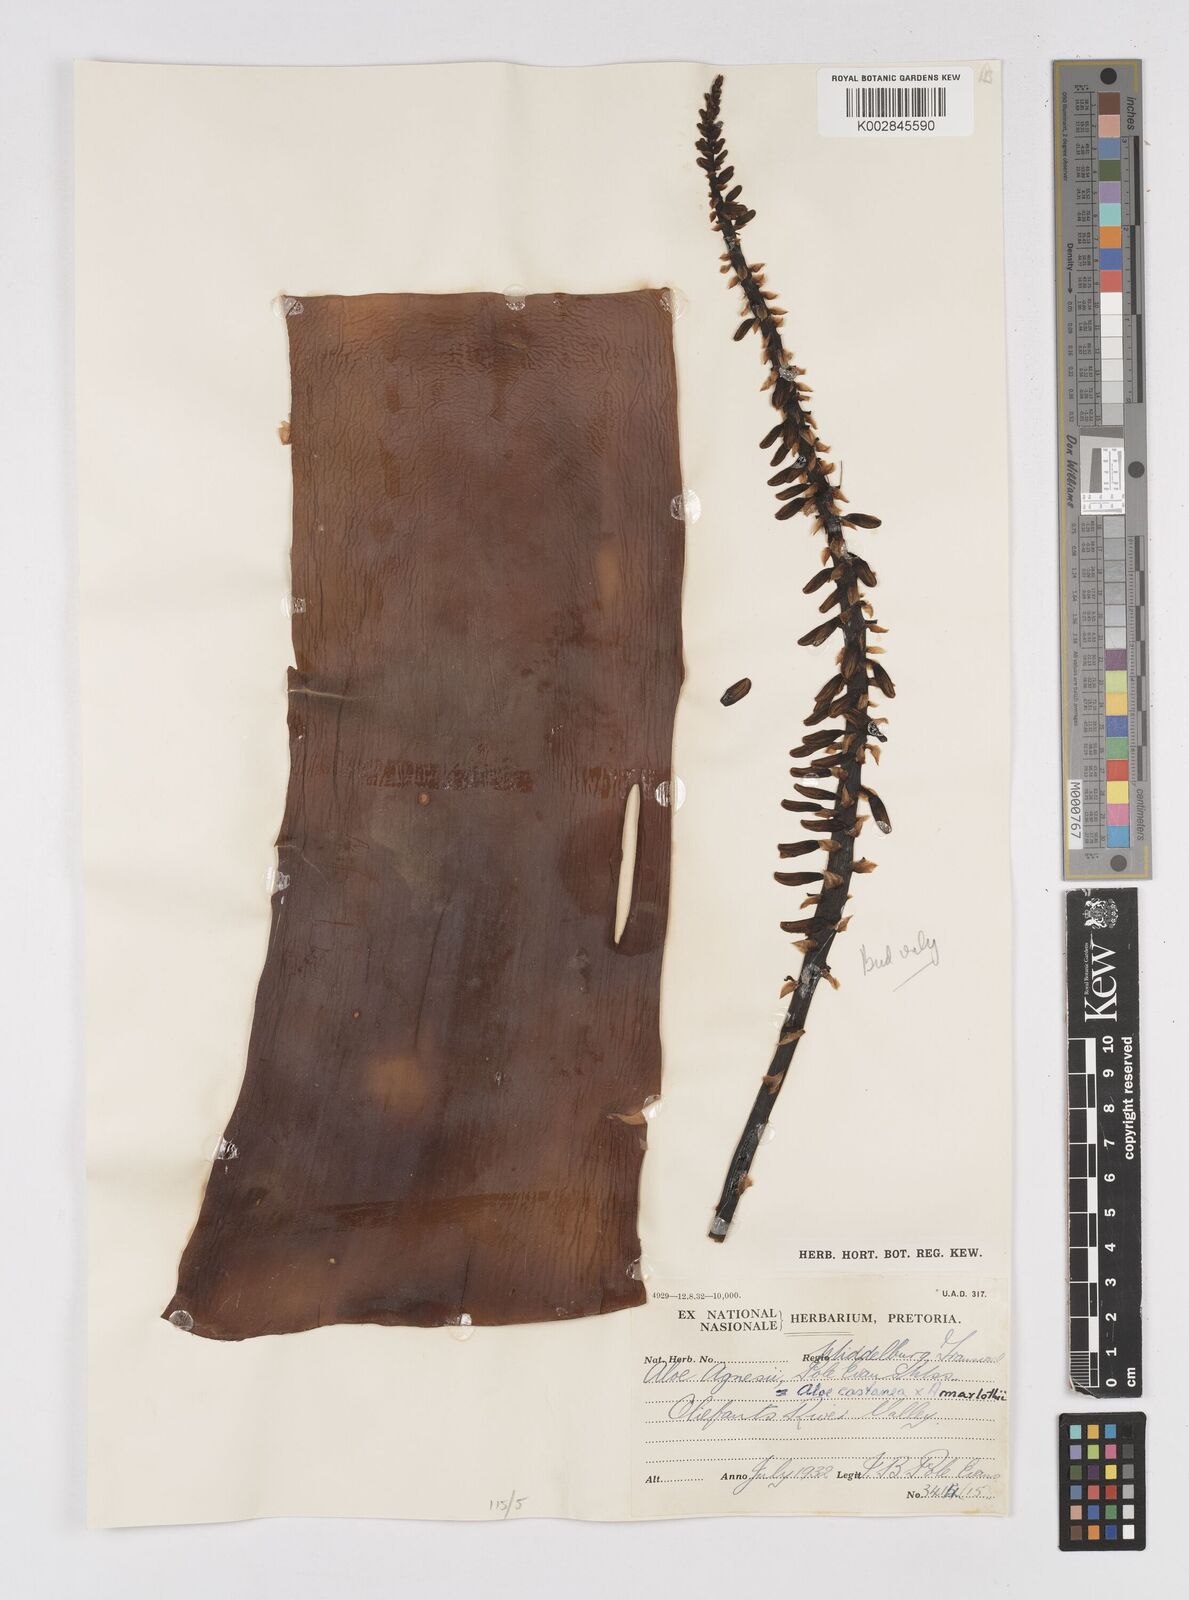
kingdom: Plantae
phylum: Tracheophyta
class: Liliopsida
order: Asparagales
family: Asphodelaceae
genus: Aloe
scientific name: Aloe castanea
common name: Cat's-tail aloe
